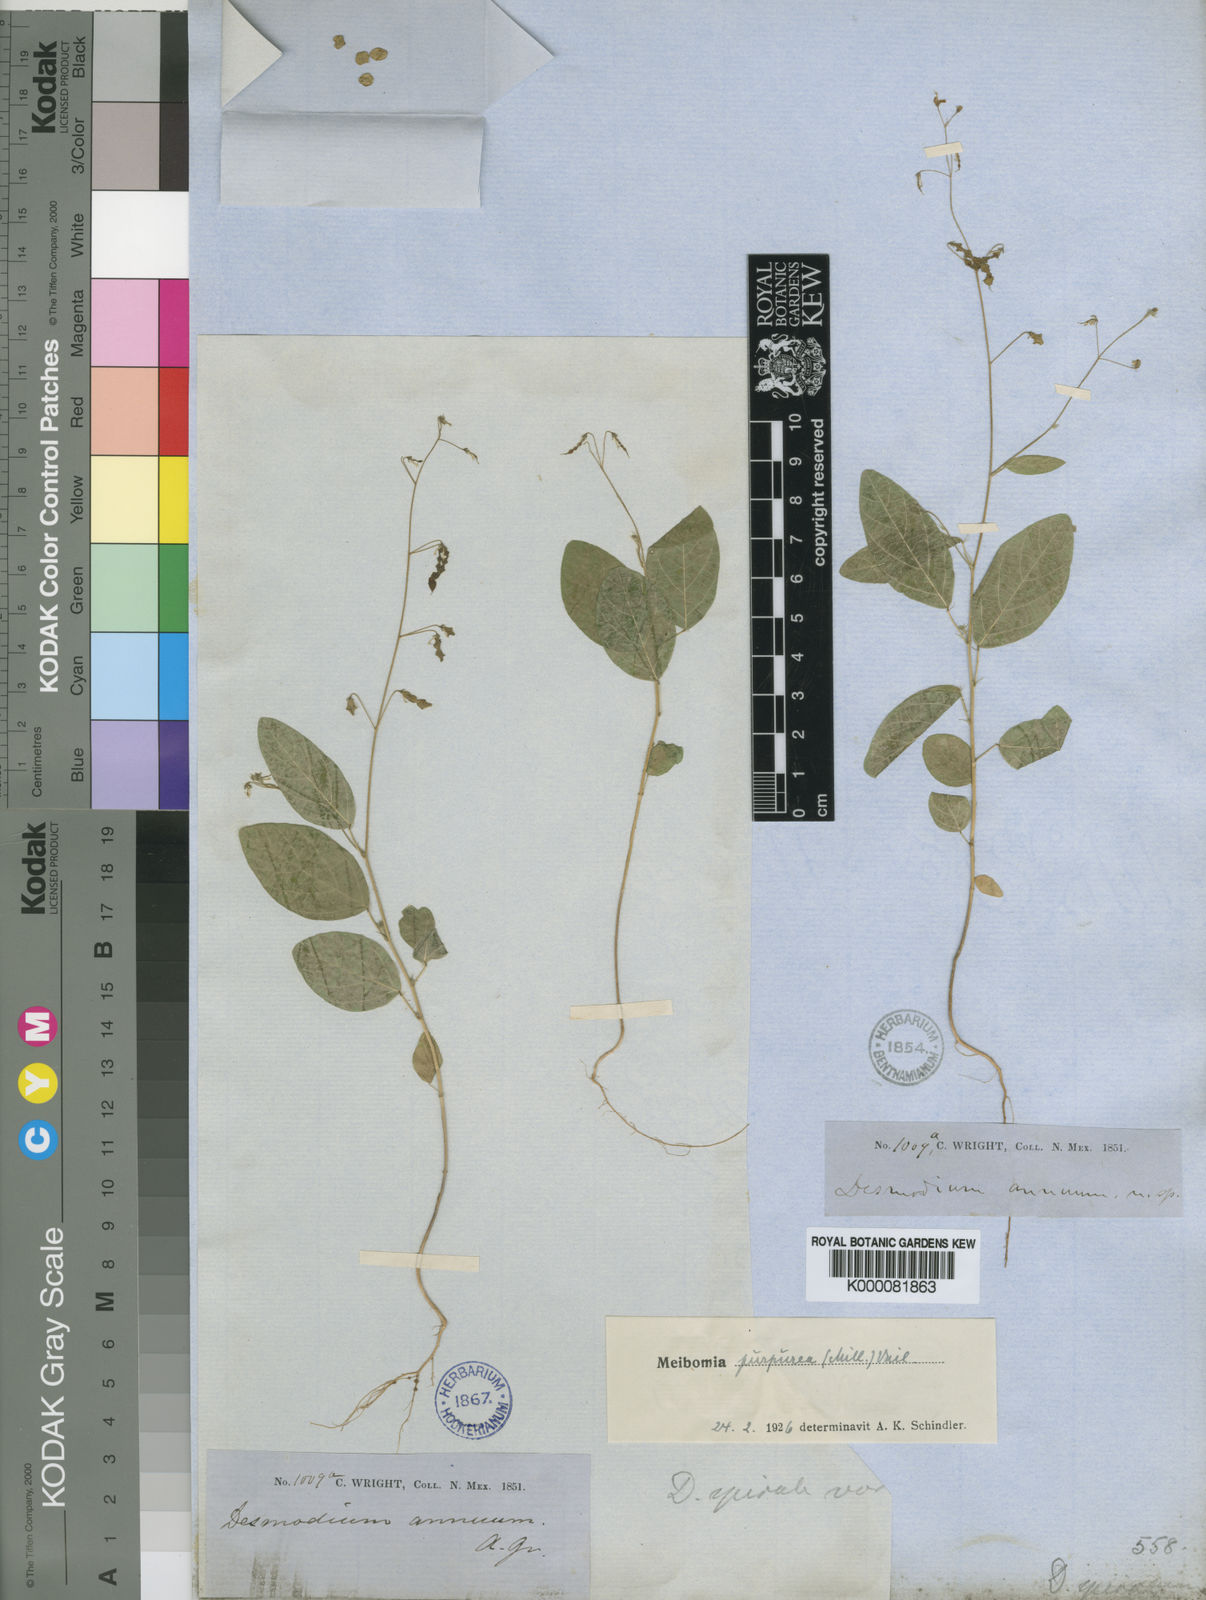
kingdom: Plantae
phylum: Tracheophyta
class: Magnoliopsida
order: Fabales
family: Fabaceae
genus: Desmodium
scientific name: Desmodium tortuosum
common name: Dixie ticktrefoil
